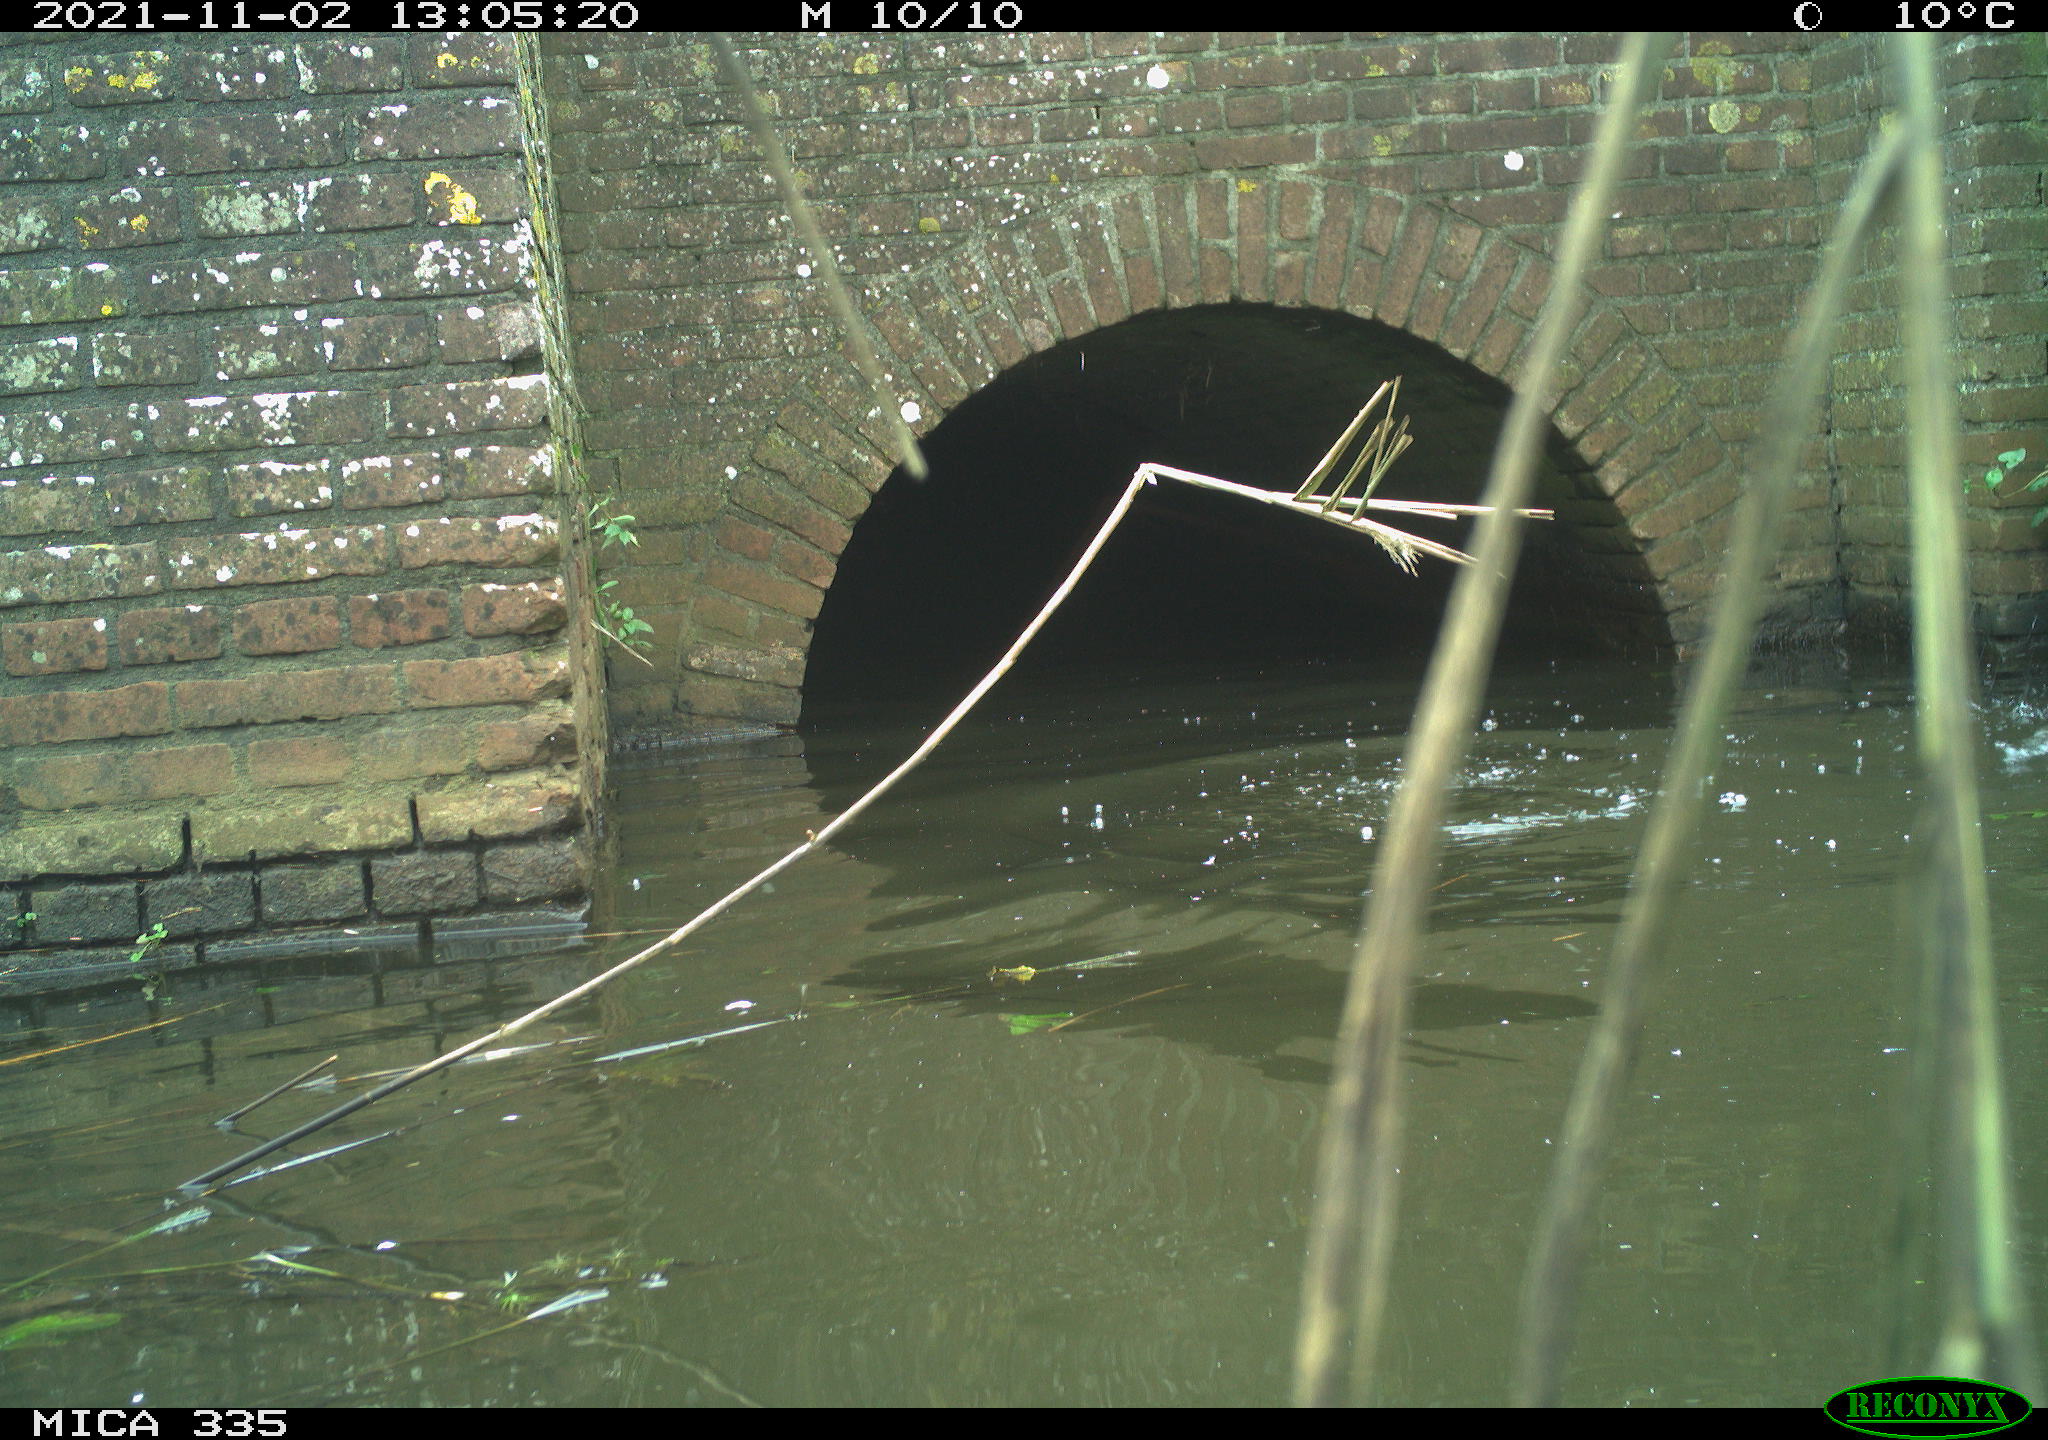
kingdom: Animalia
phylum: Chordata
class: Aves
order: Suliformes
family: Phalacrocoracidae
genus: Phalacrocorax
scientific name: Phalacrocorax carbo
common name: Great cormorant
